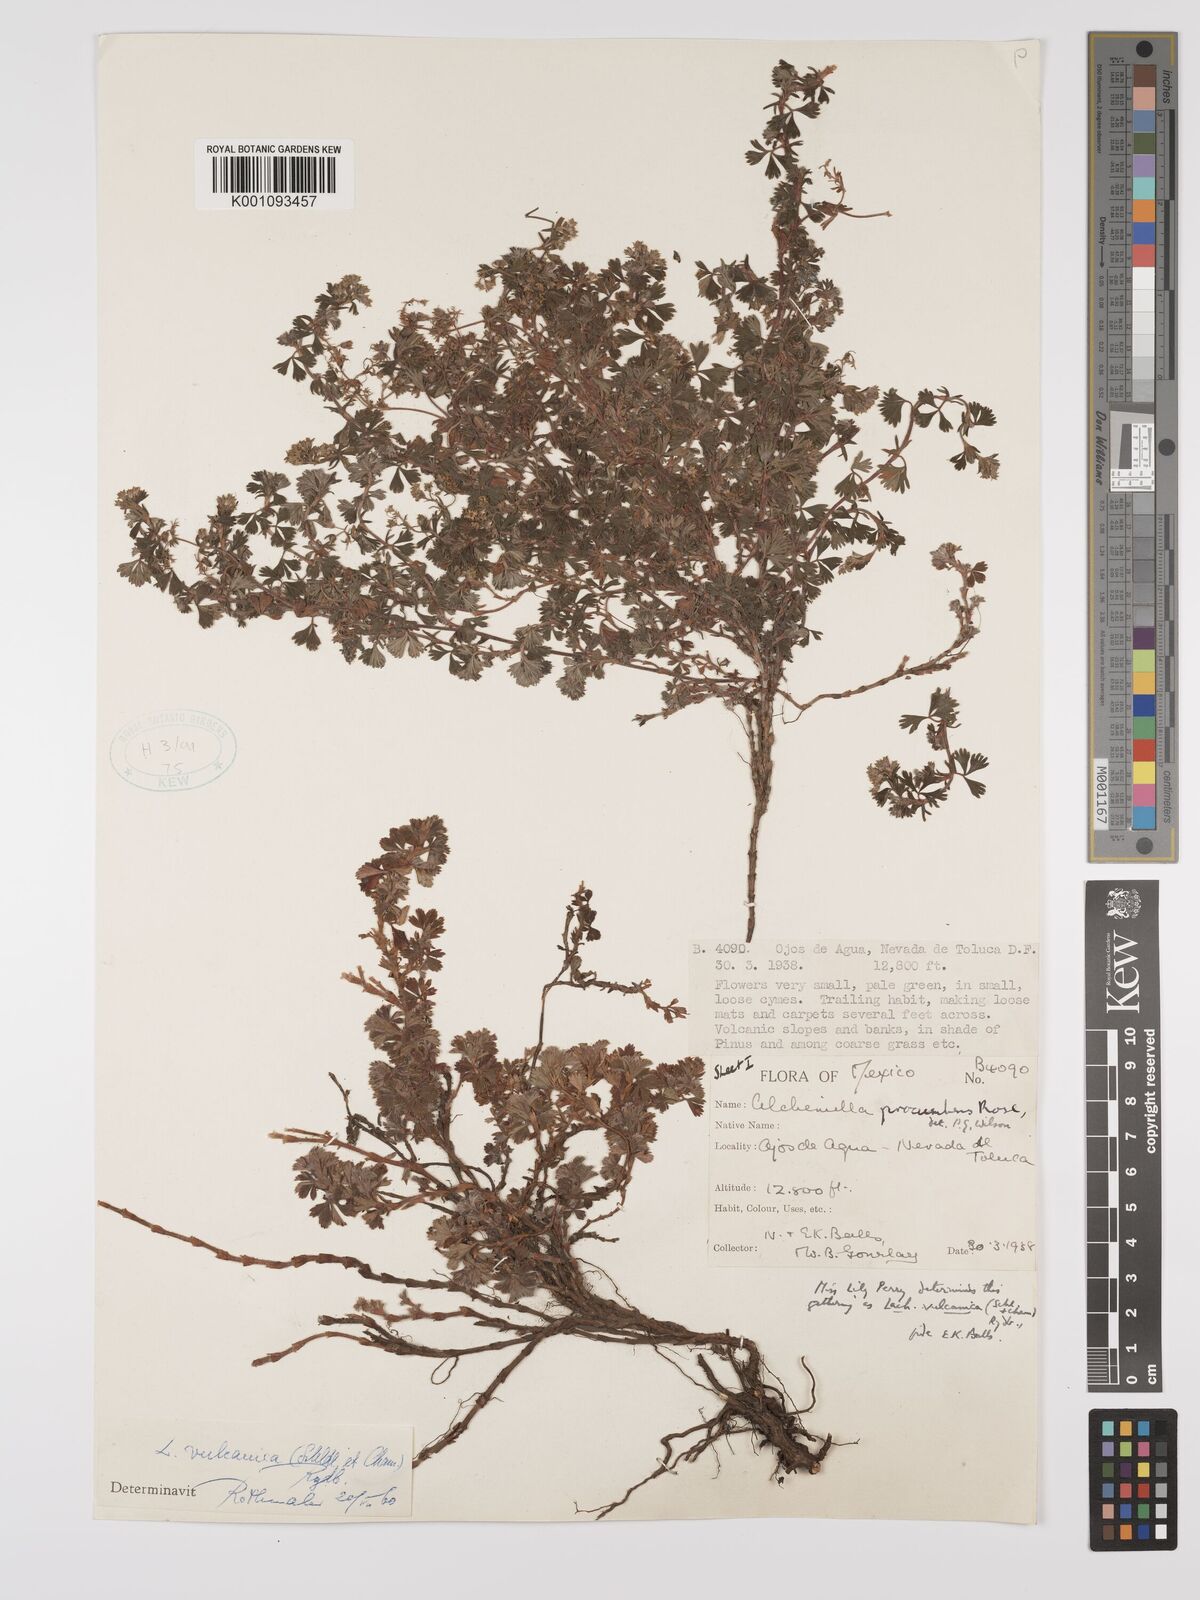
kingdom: Plantae
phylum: Tracheophyta
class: Magnoliopsida
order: Rosales
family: Rosaceae
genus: Lachemilla
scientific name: Lachemilla procumbens
